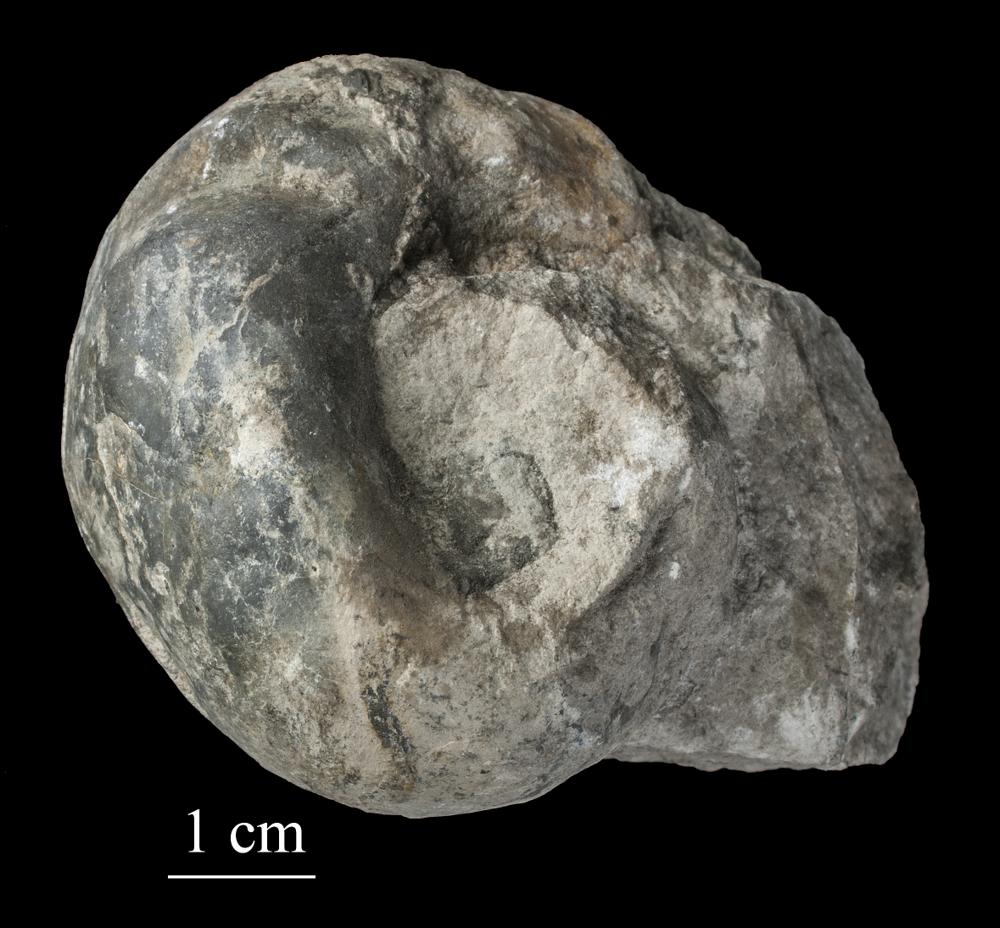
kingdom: Animalia
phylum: Mollusca
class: Gastropoda
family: Holopeidae
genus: Holopea
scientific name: Holopea ampullacea
